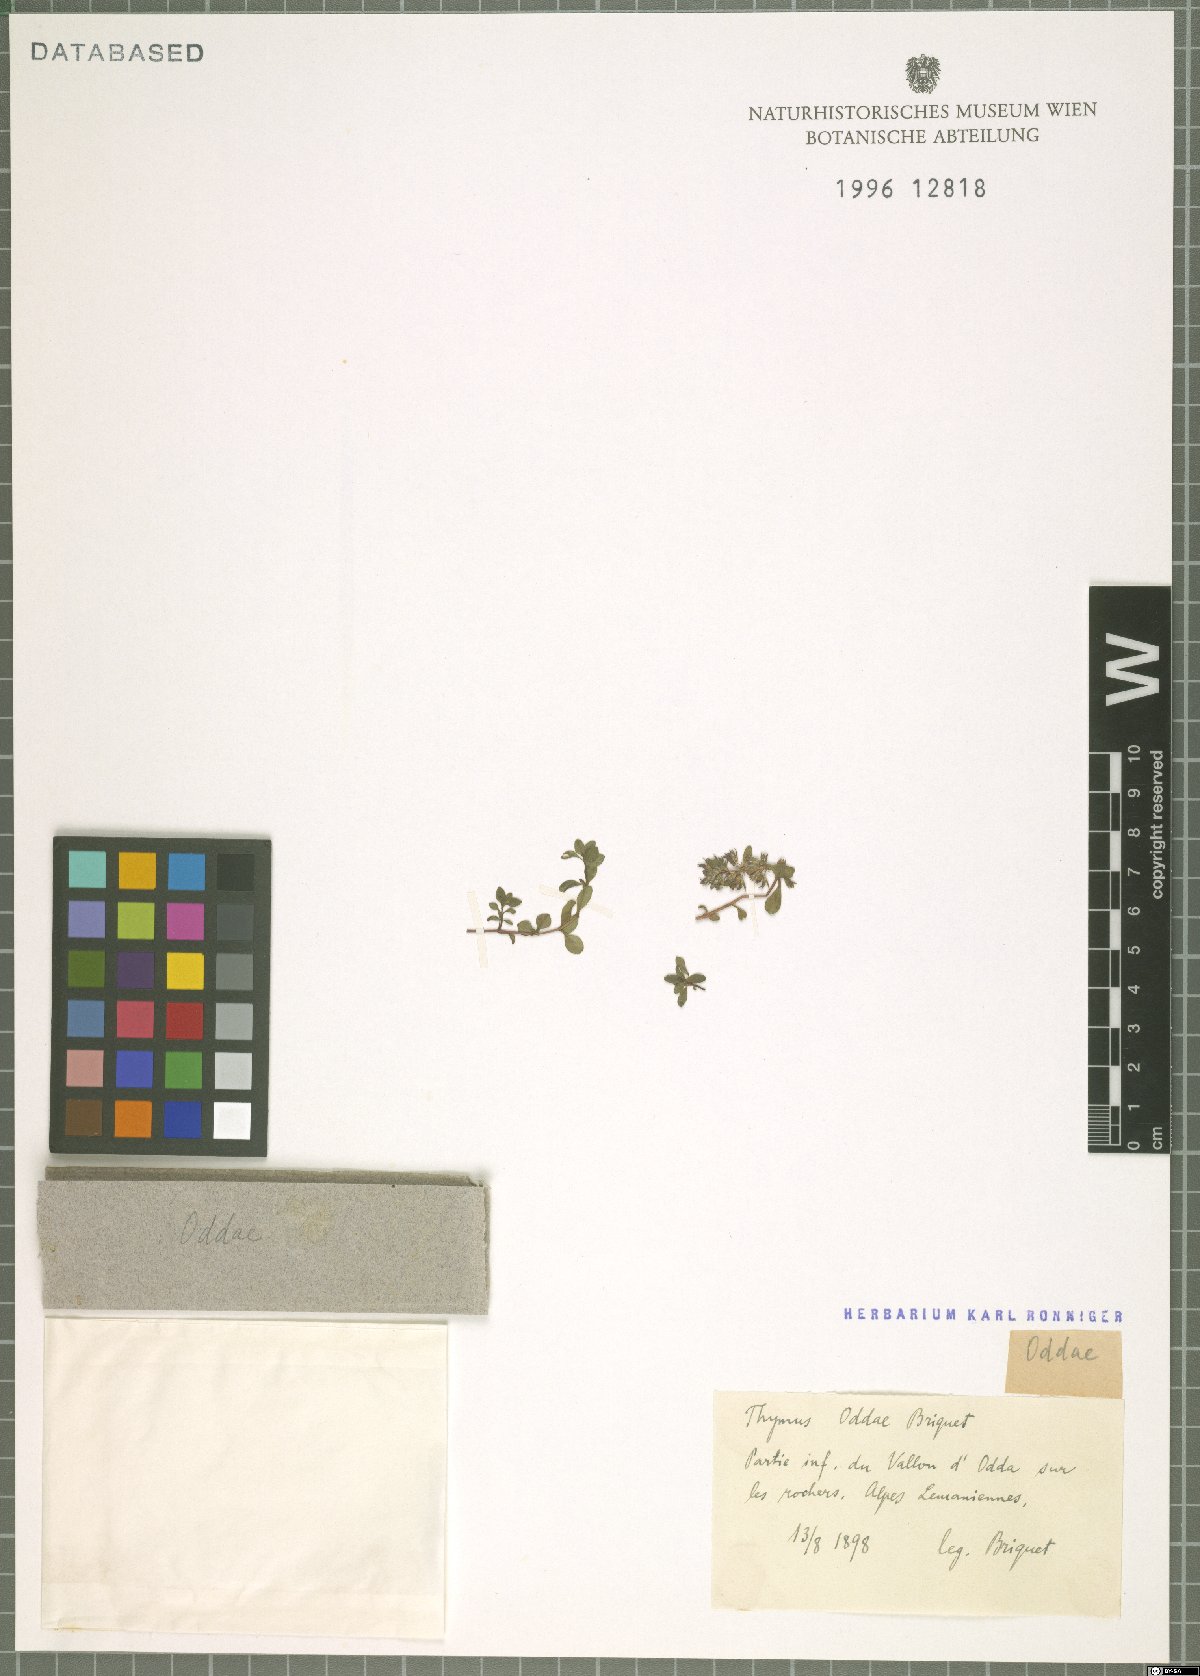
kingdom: Plantae
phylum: Tracheophyta
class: Magnoliopsida
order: Lamiales
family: Lamiaceae
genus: Thymus
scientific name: Thymus
